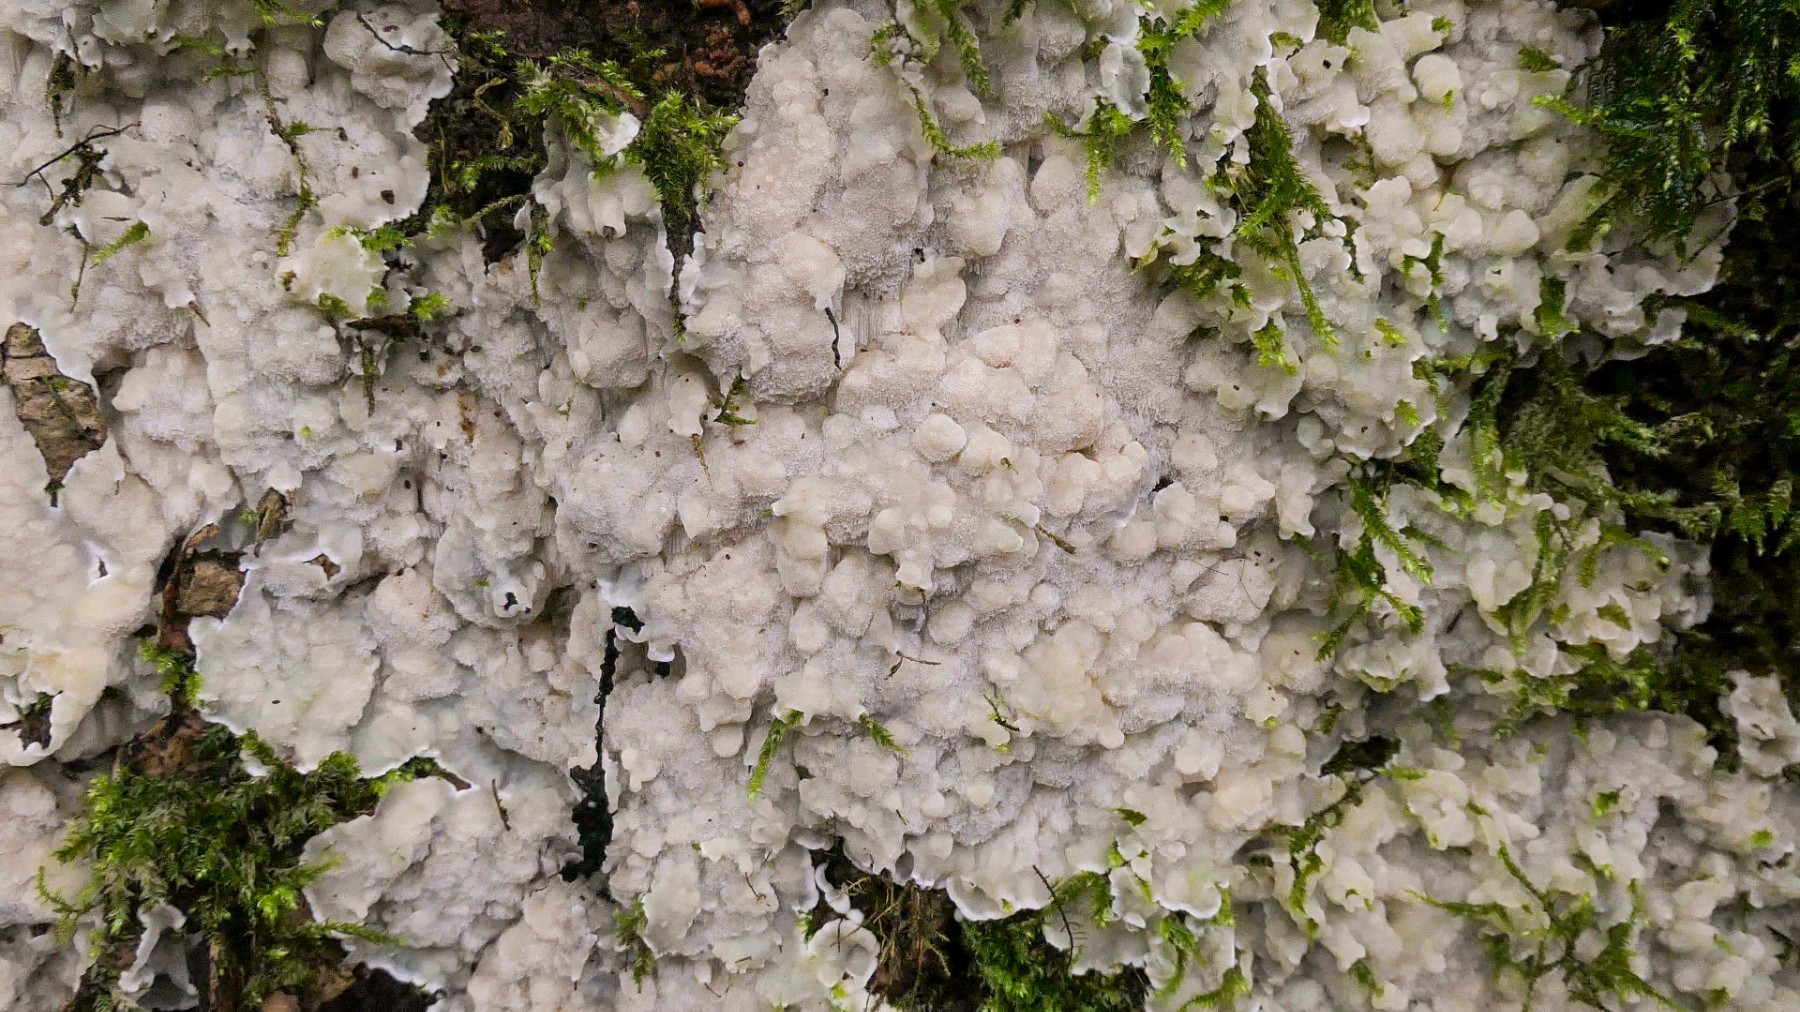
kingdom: Fungi
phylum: Basidiomycota
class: Agaricomycetes
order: Polyporales
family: Meruliaceae
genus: Physisporinus
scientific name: Physisporinus vitreus
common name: mastesvamp
